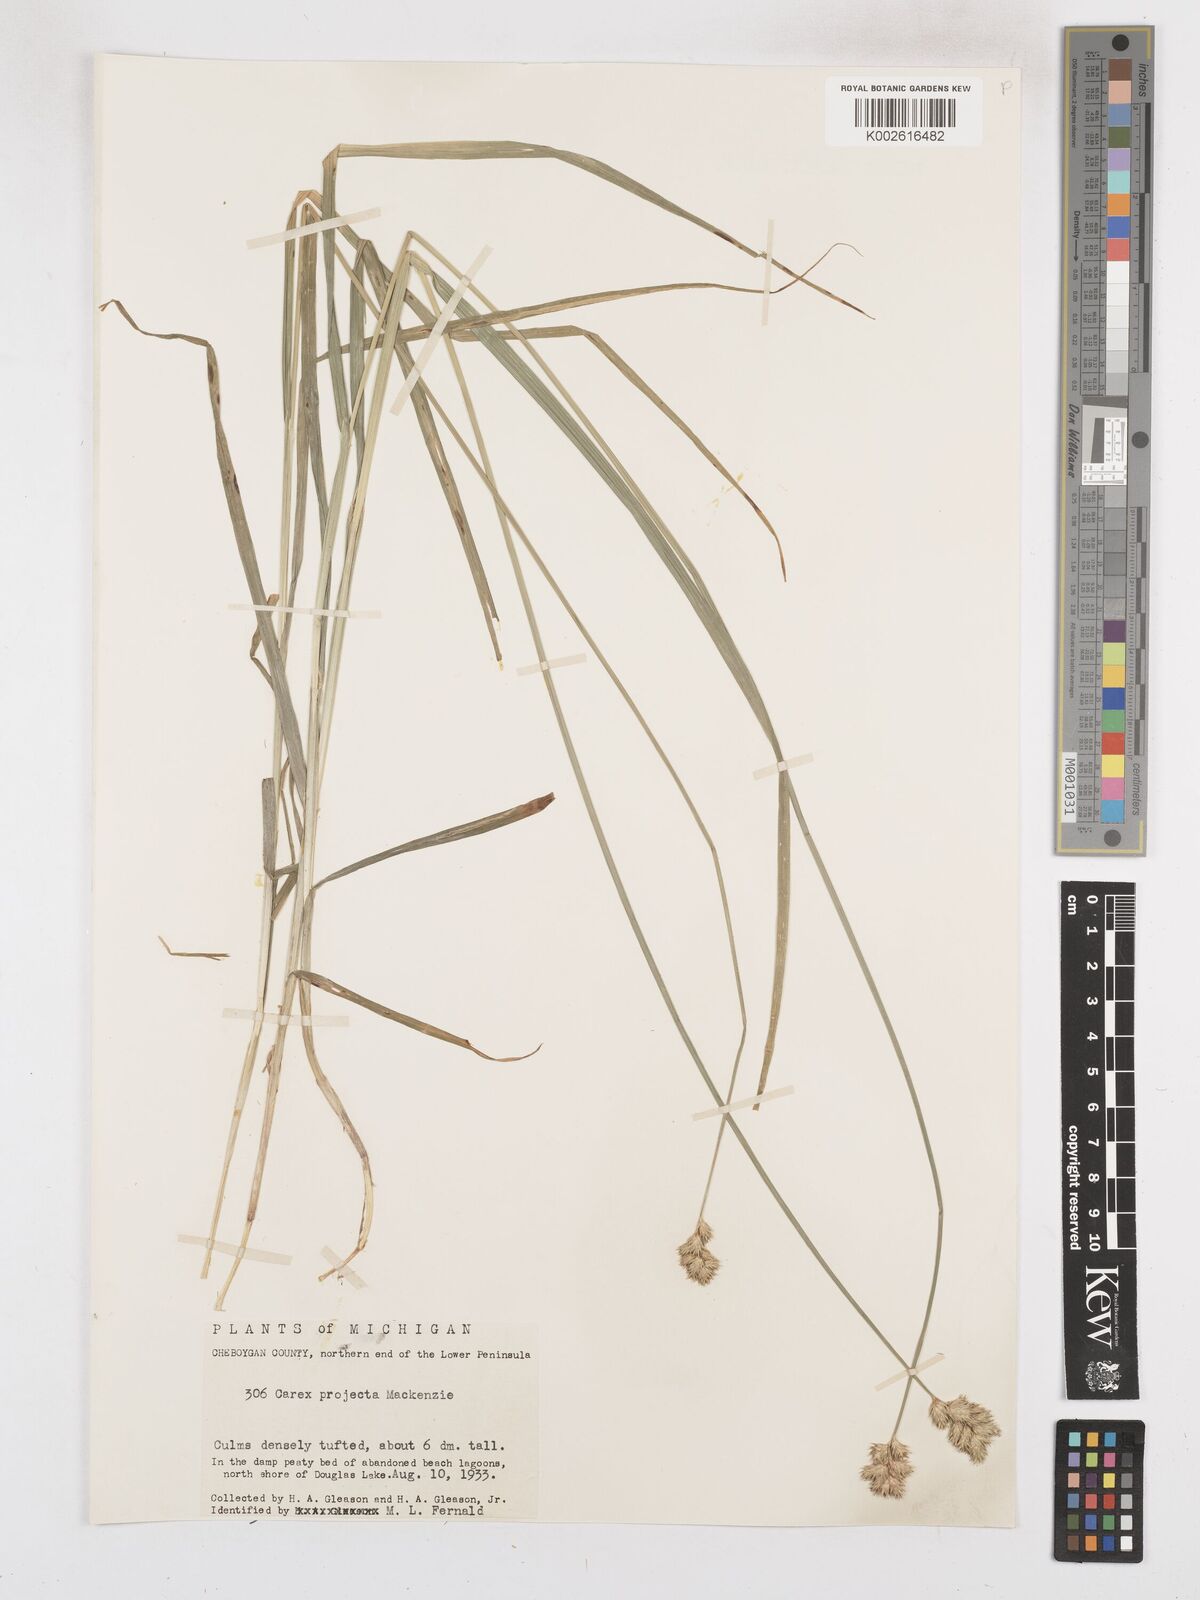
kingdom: Plantae
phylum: Tracheophyta
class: Liliopsida
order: Poales
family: Cyperaceae
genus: Carex
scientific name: Carex projecta
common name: Loose-headed oval sedge
